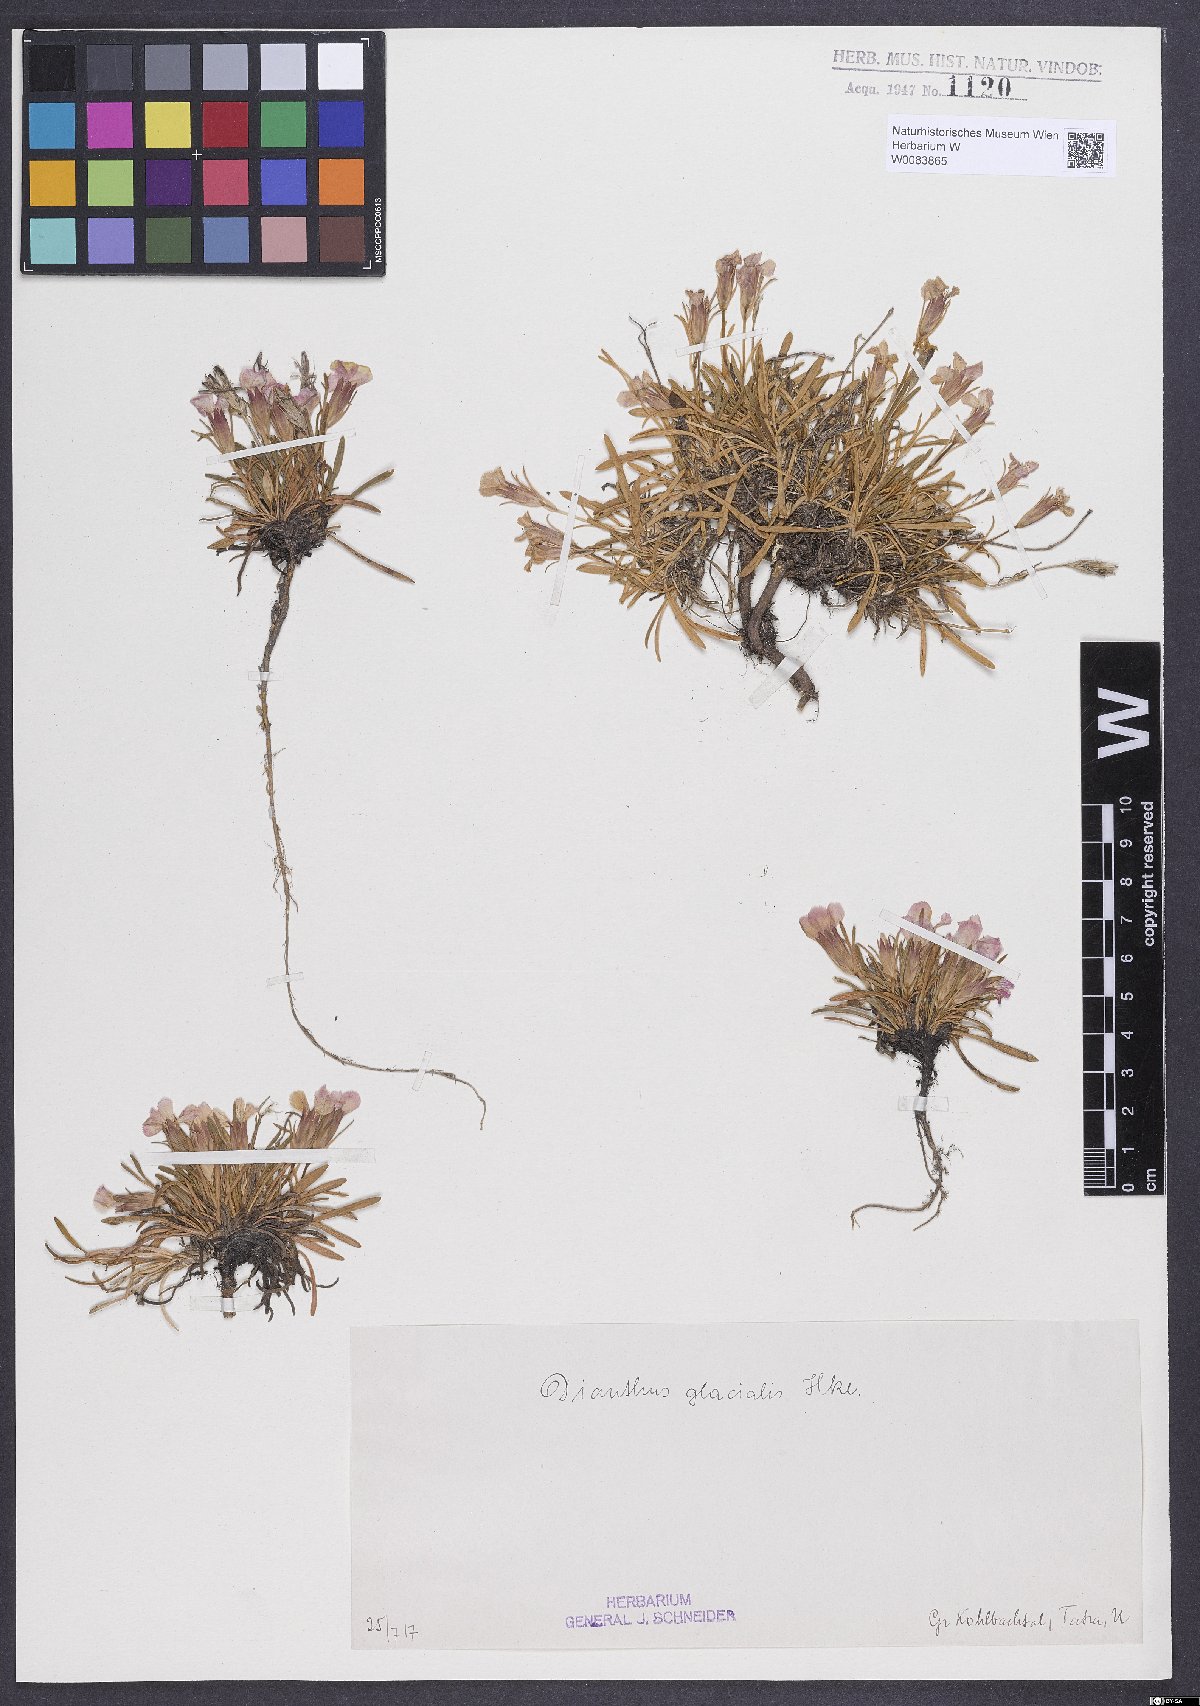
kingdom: Plantae
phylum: Tracheophyta
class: Magnoliopsida
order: Caryophyllales
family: Caryophyllaceae
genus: Dianthus
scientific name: Dianthus glacialis
